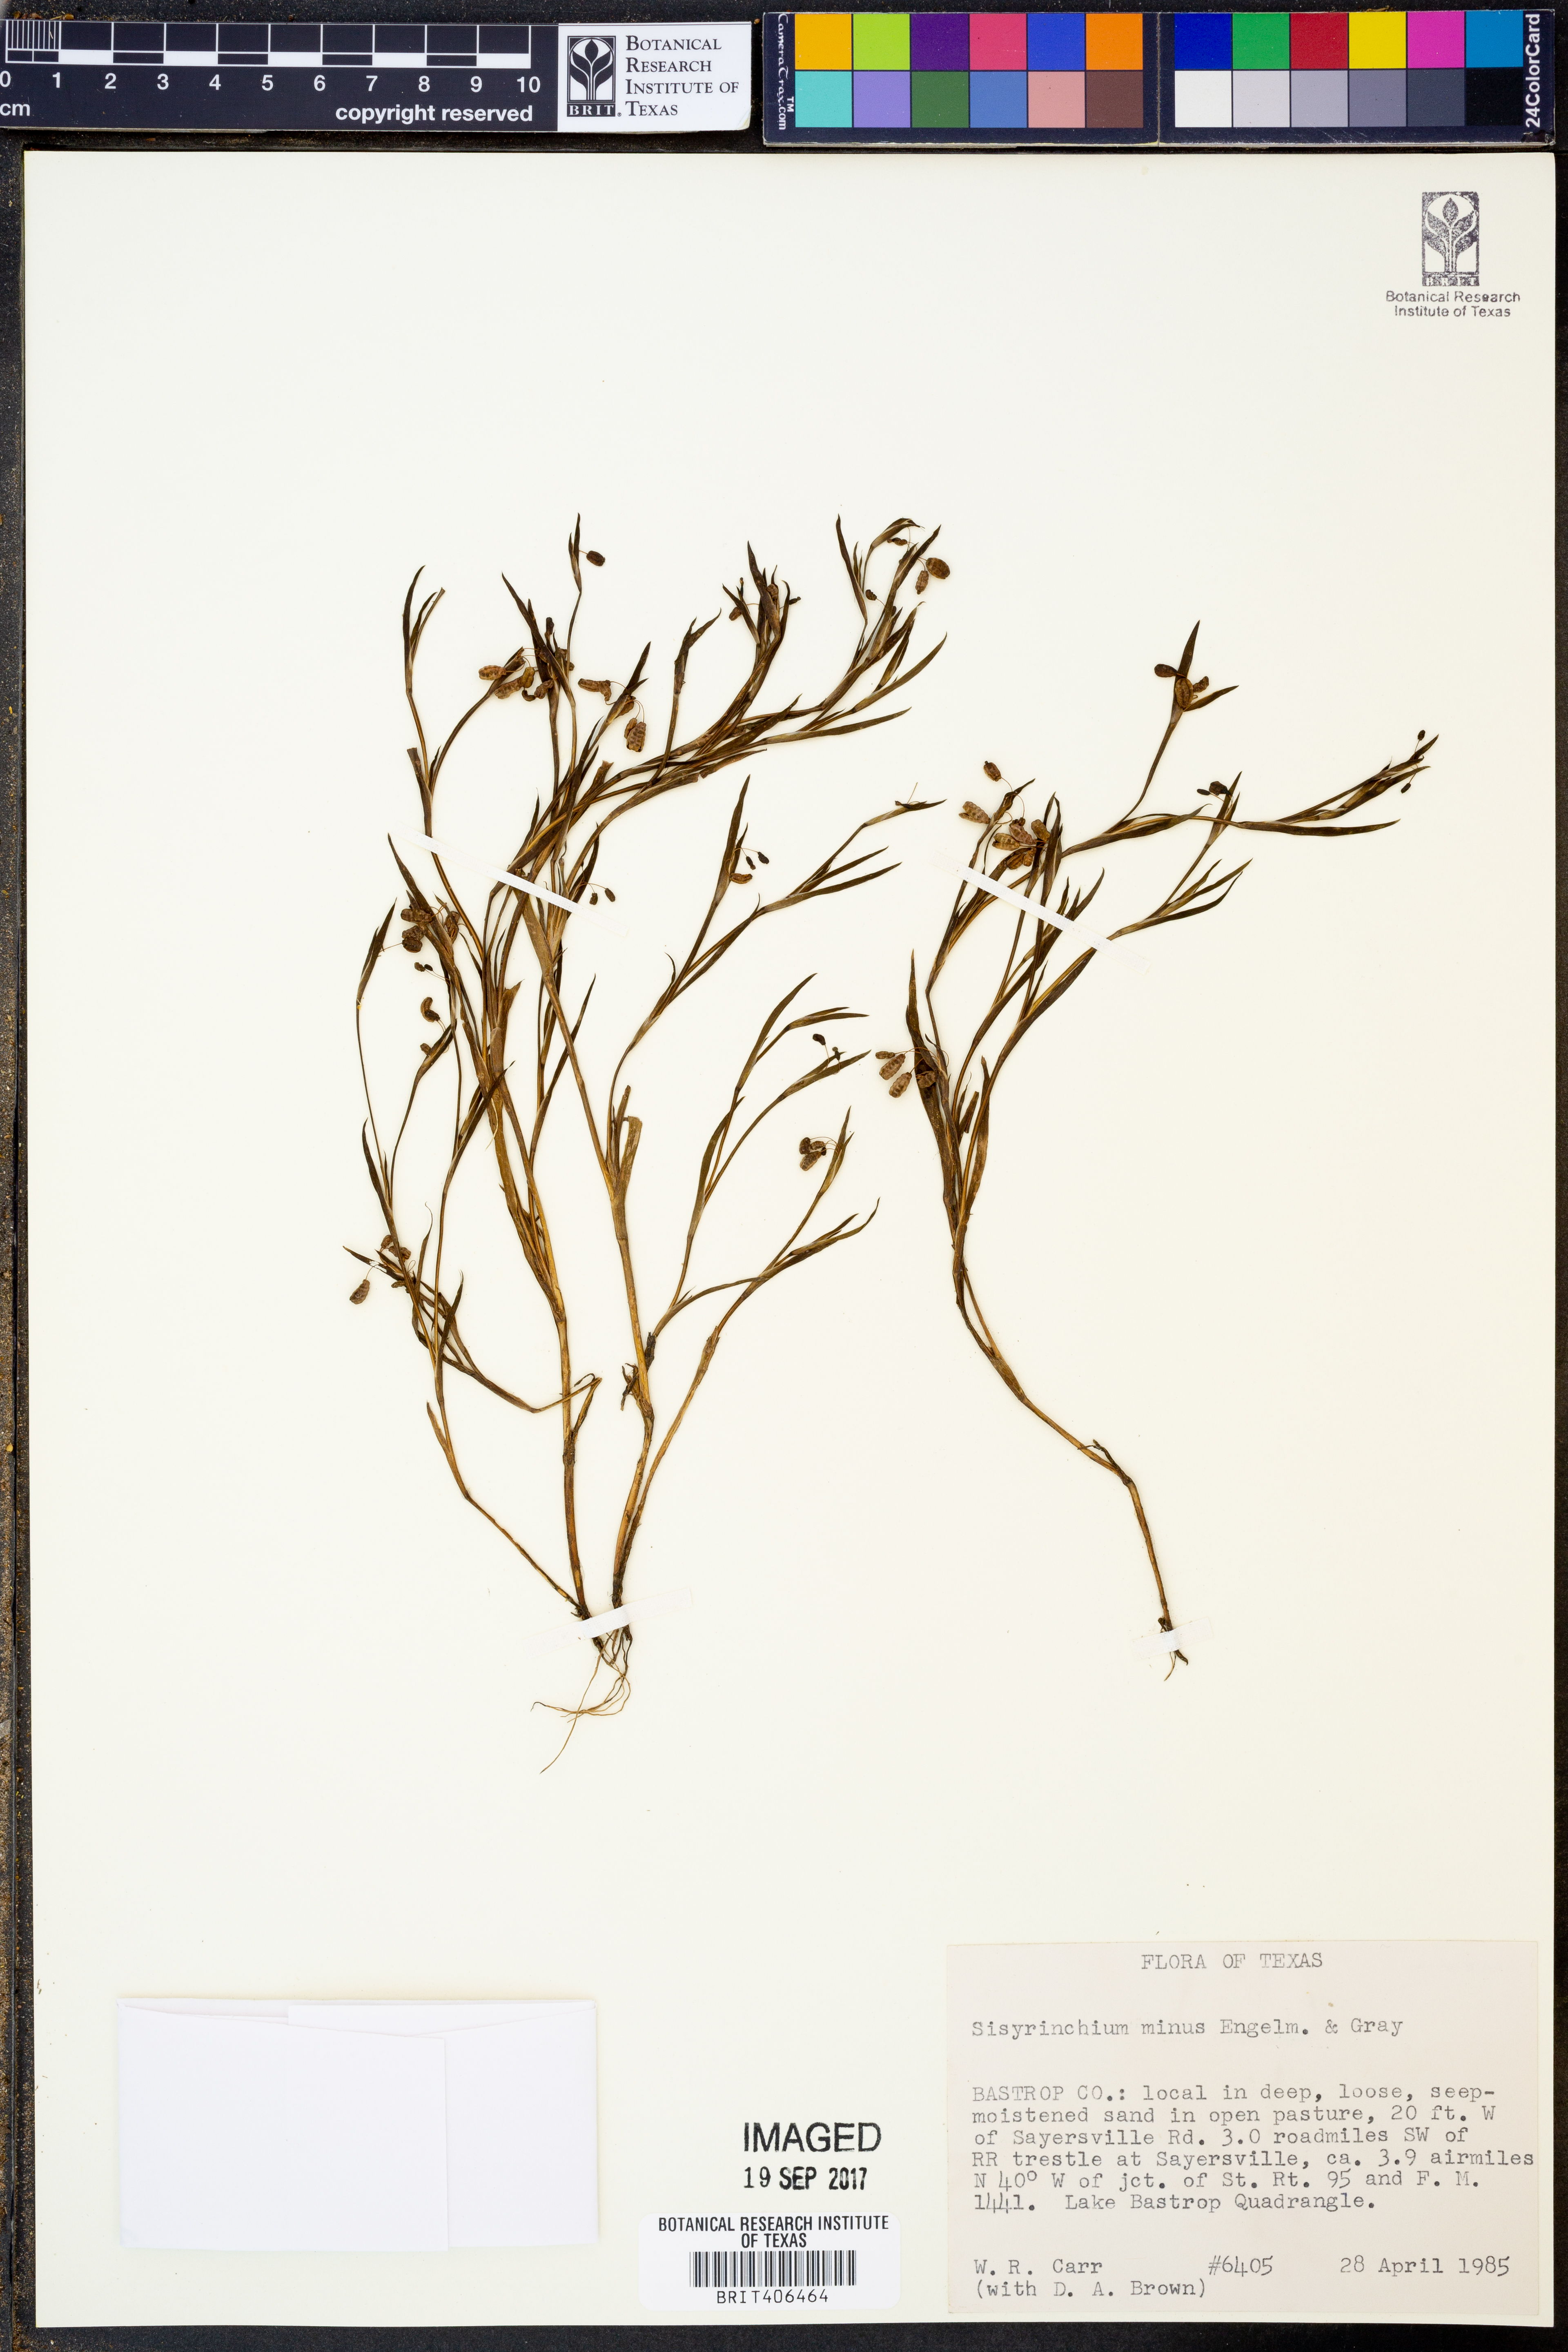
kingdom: Plantae
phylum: Tracheophyta
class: Liliopsida
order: Asparagales
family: Iridaceae
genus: Sisyrinchium
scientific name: Sisyrinchium minus
